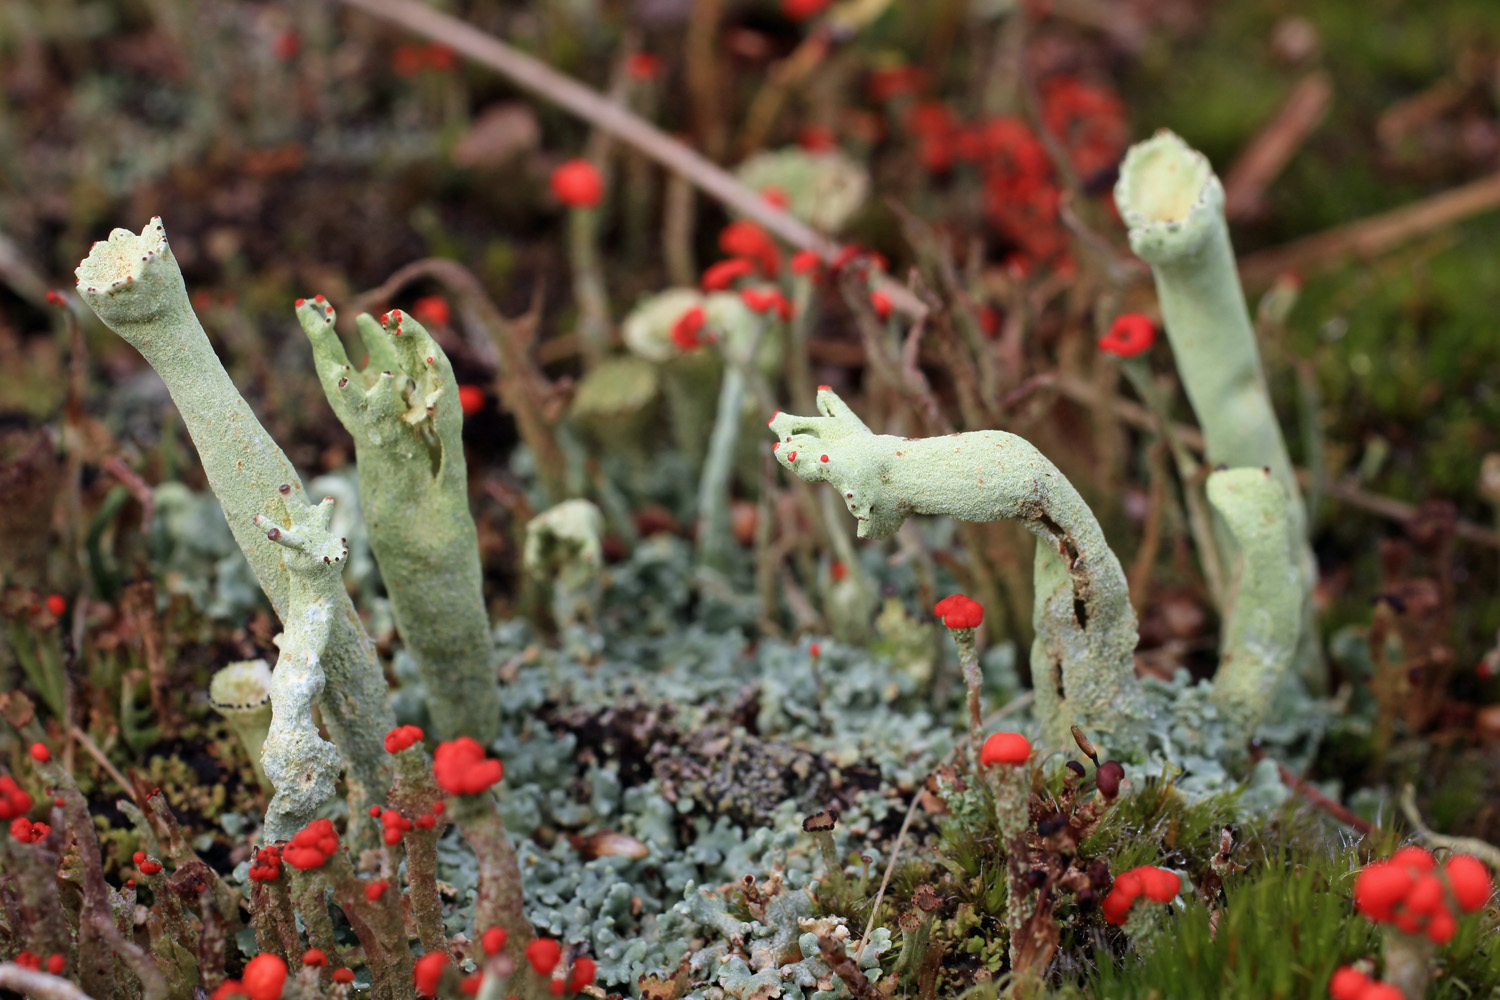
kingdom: Fungi
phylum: Ascomycota
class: Lecanoromycetes
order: Lecanorales
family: Cladoniaceae
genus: Cladonia
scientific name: Cladonia sulphurina
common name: opblæst bægerlav
